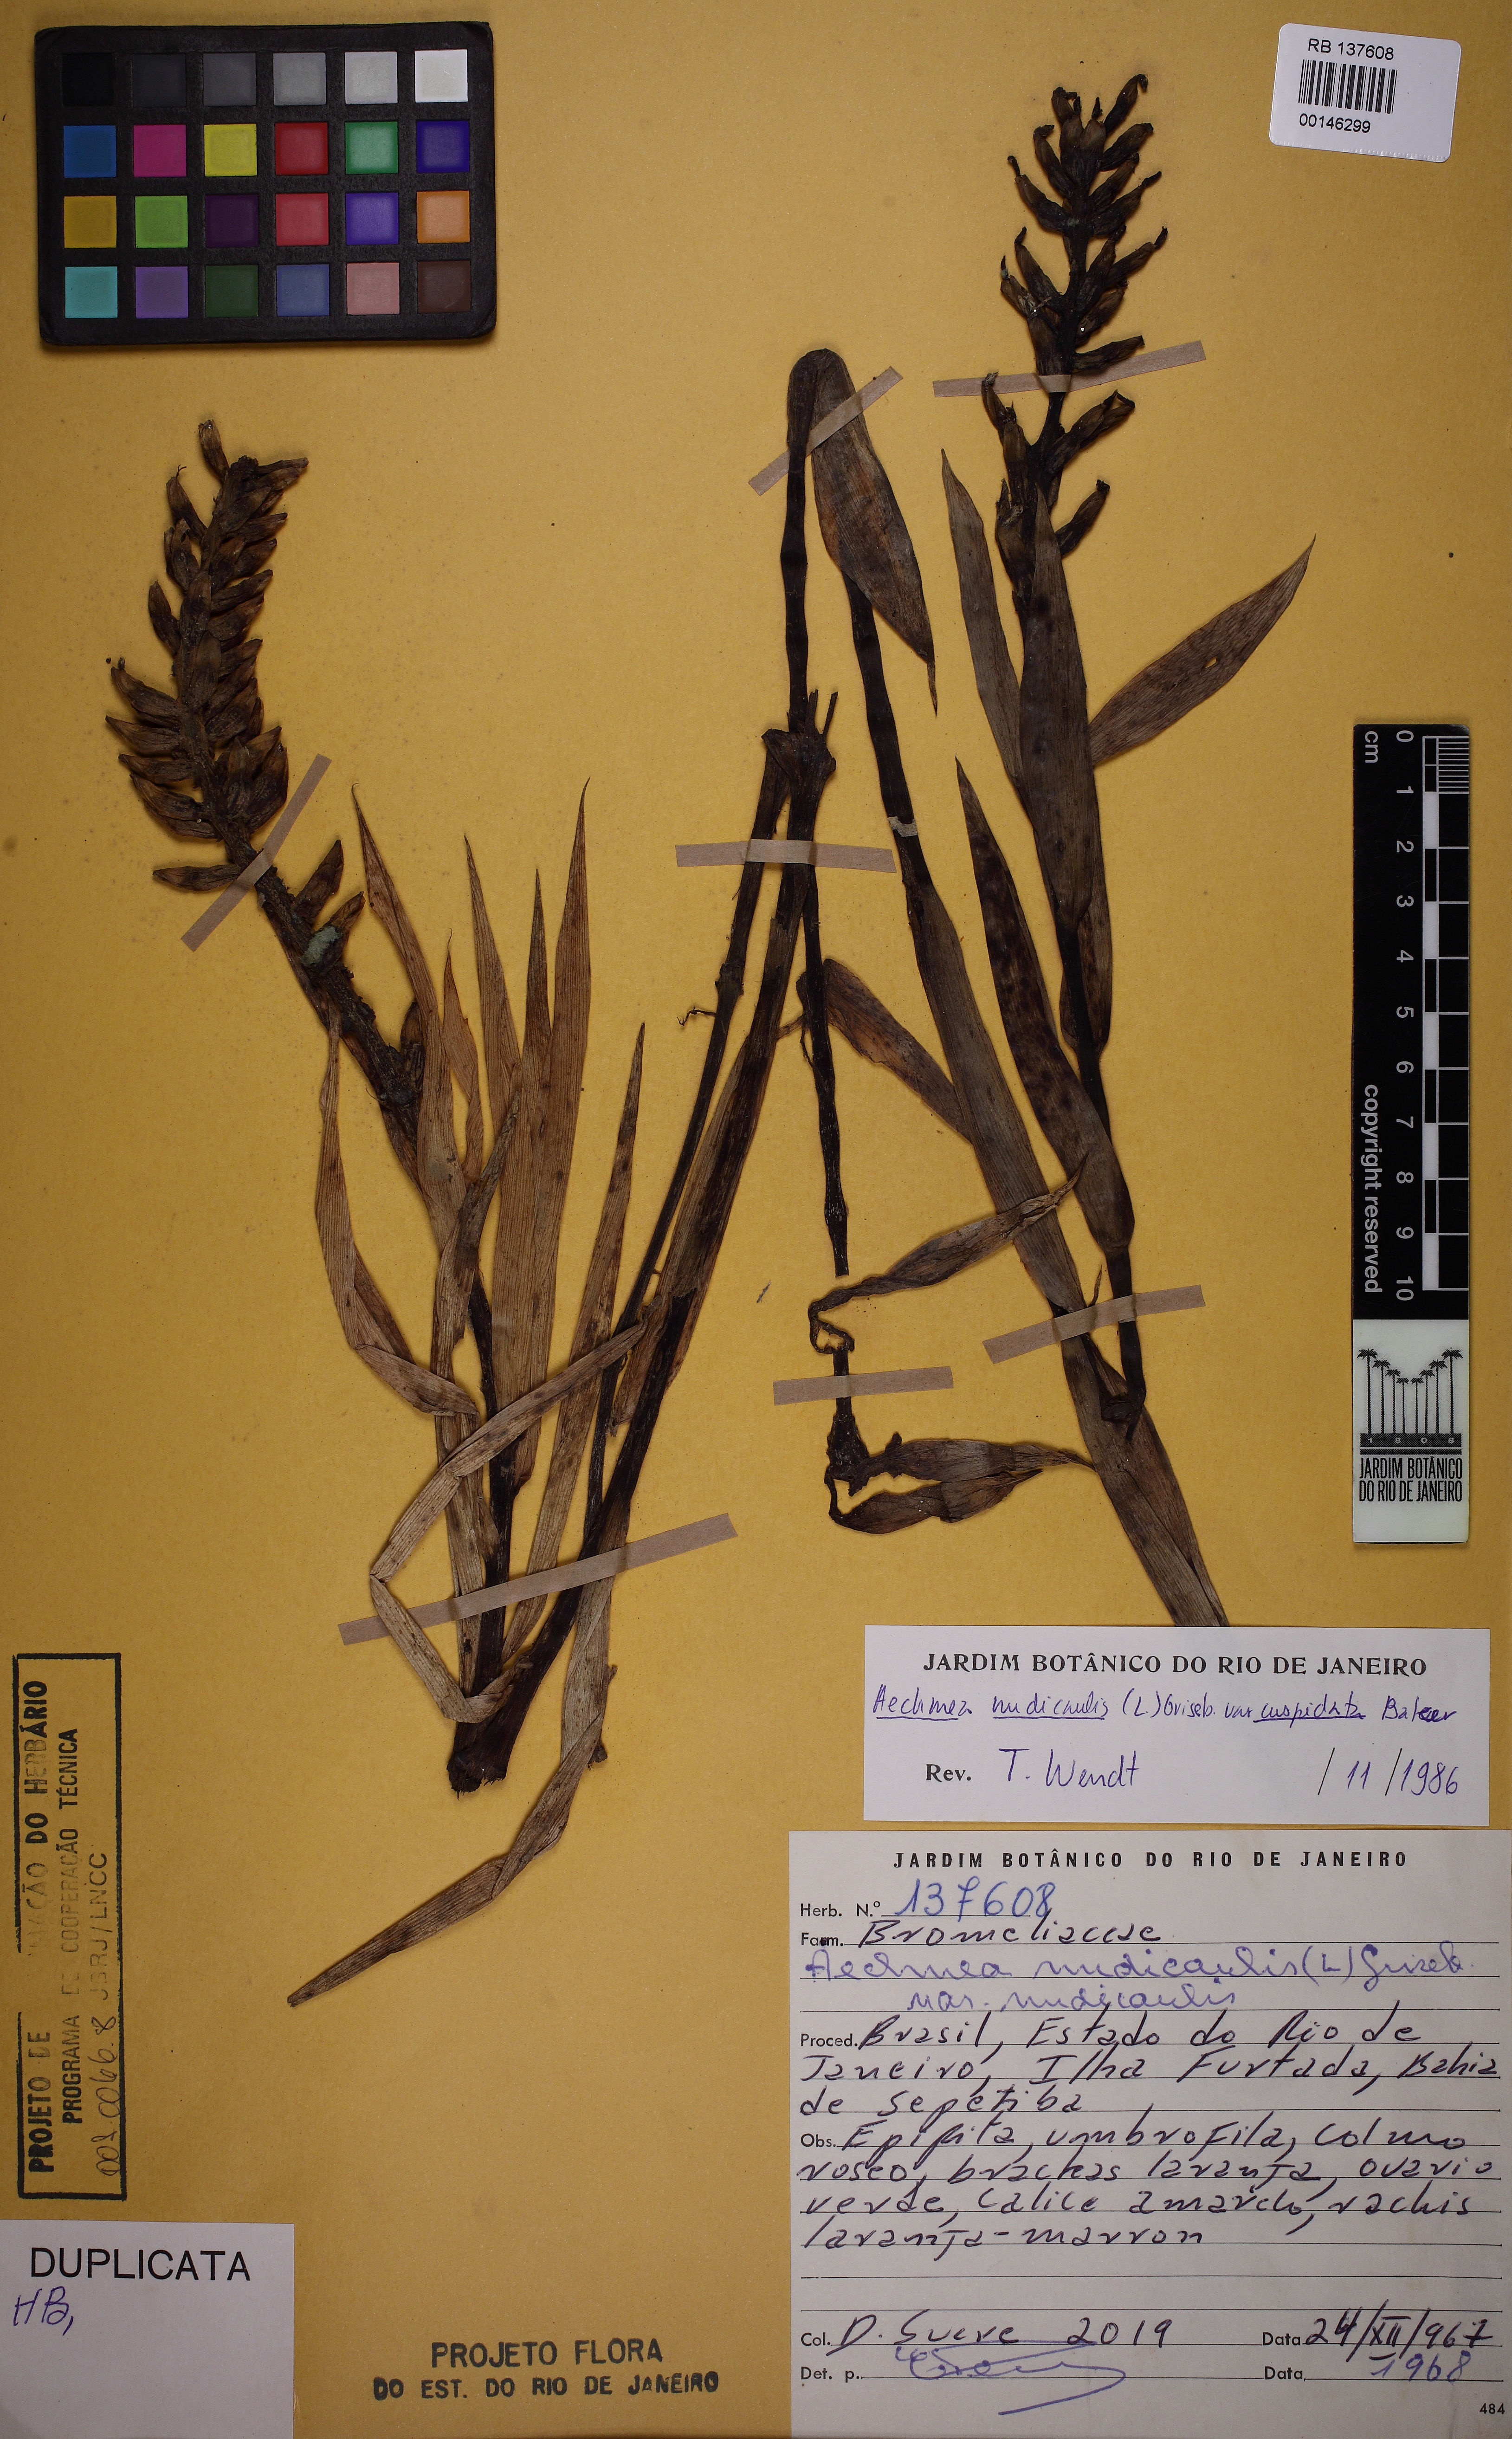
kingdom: Plantae
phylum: Tracheophyta
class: Liliopsida
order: Poales
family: Bromeliaceae
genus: Aechmea
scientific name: Aechmea nudicaulis
